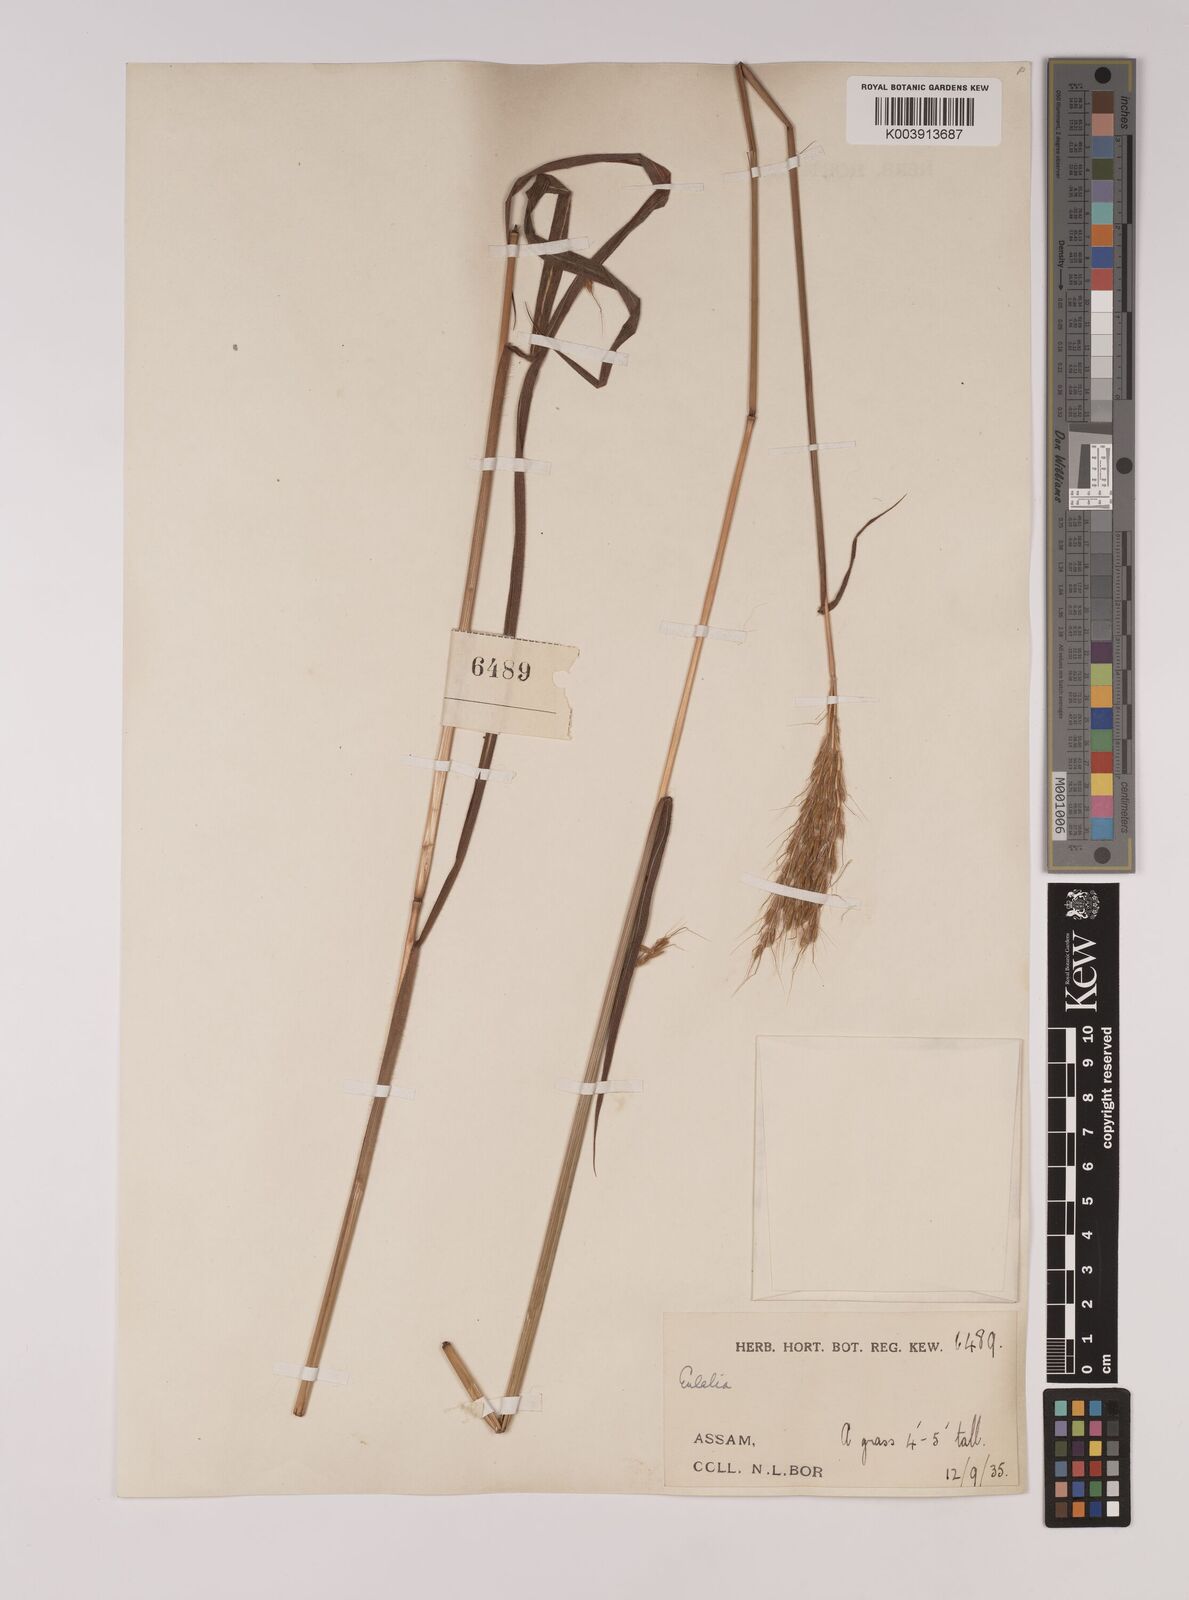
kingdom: Plantae
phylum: Tracheophyta
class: Liliopsida
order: Poales
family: Poaceae
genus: Pseudopogonatherum
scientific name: Pseudopogonatherum quadrinerve
